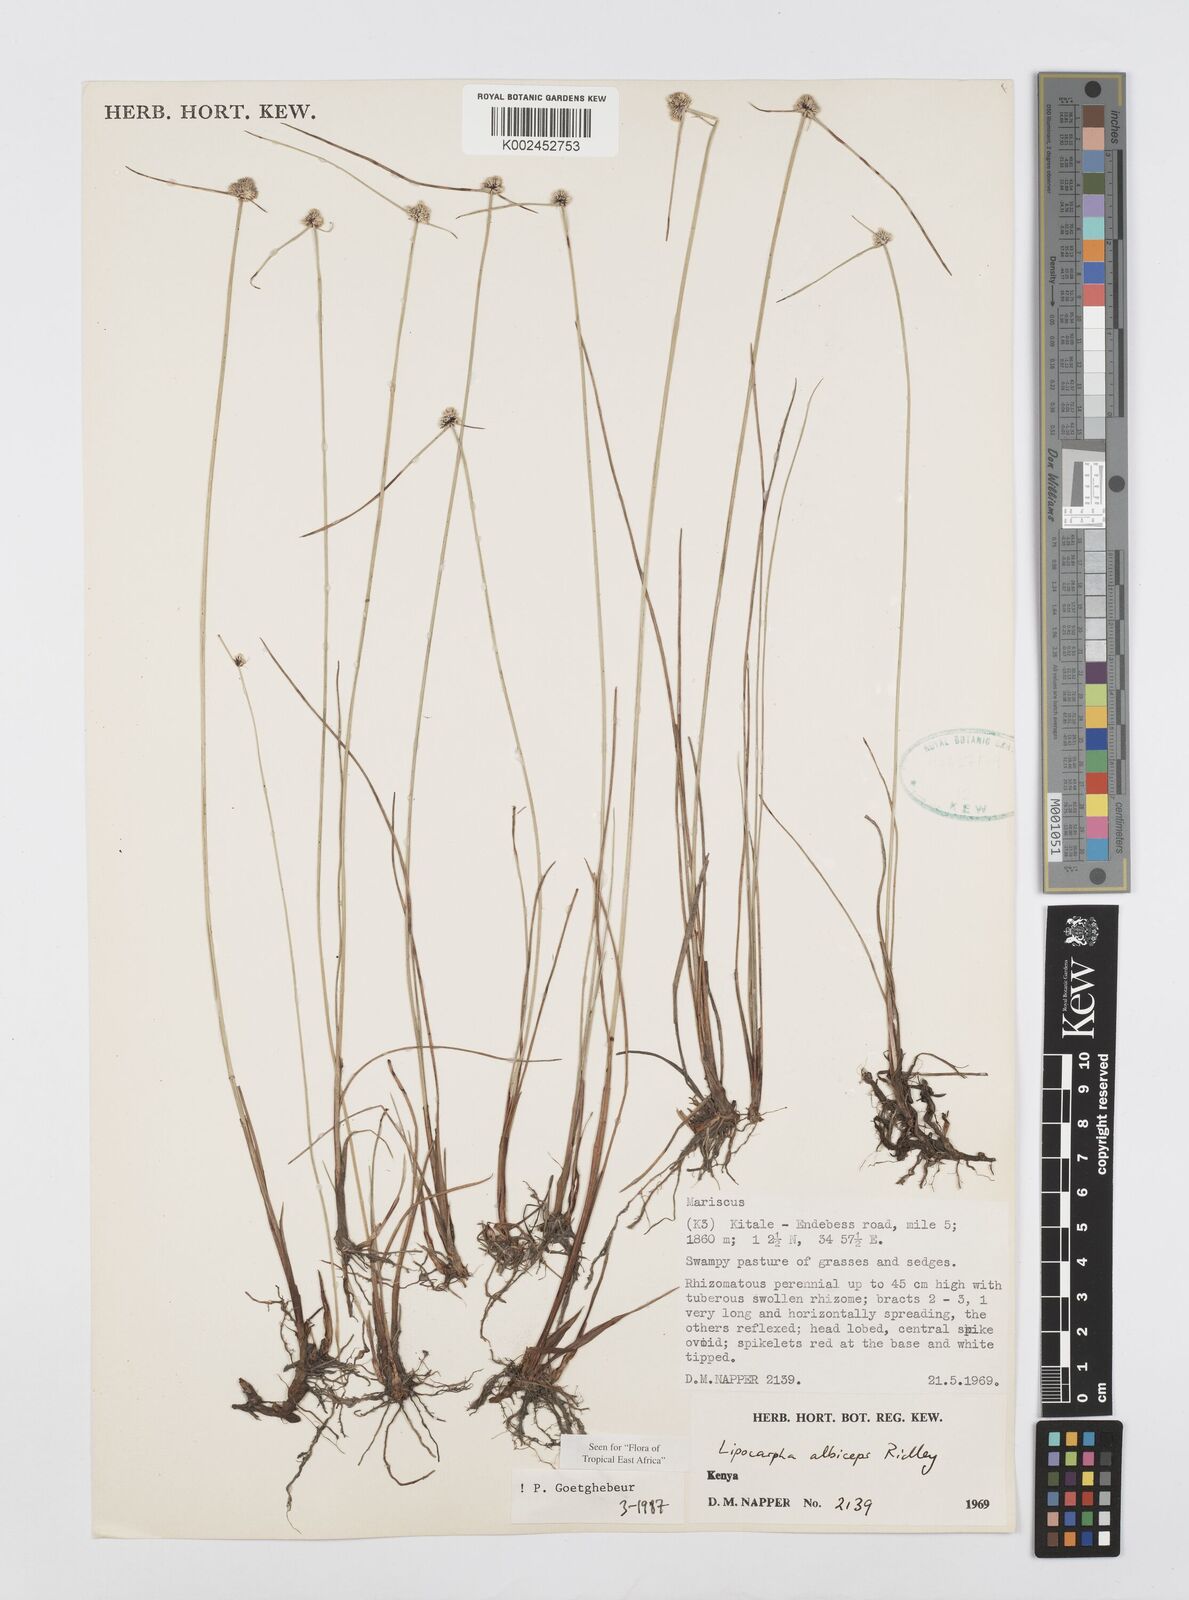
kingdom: Plantae
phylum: Tracheophyta
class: Liliopsida
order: Poales
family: Cyperaceae
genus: Cyperus
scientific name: Cyperus albiceps
